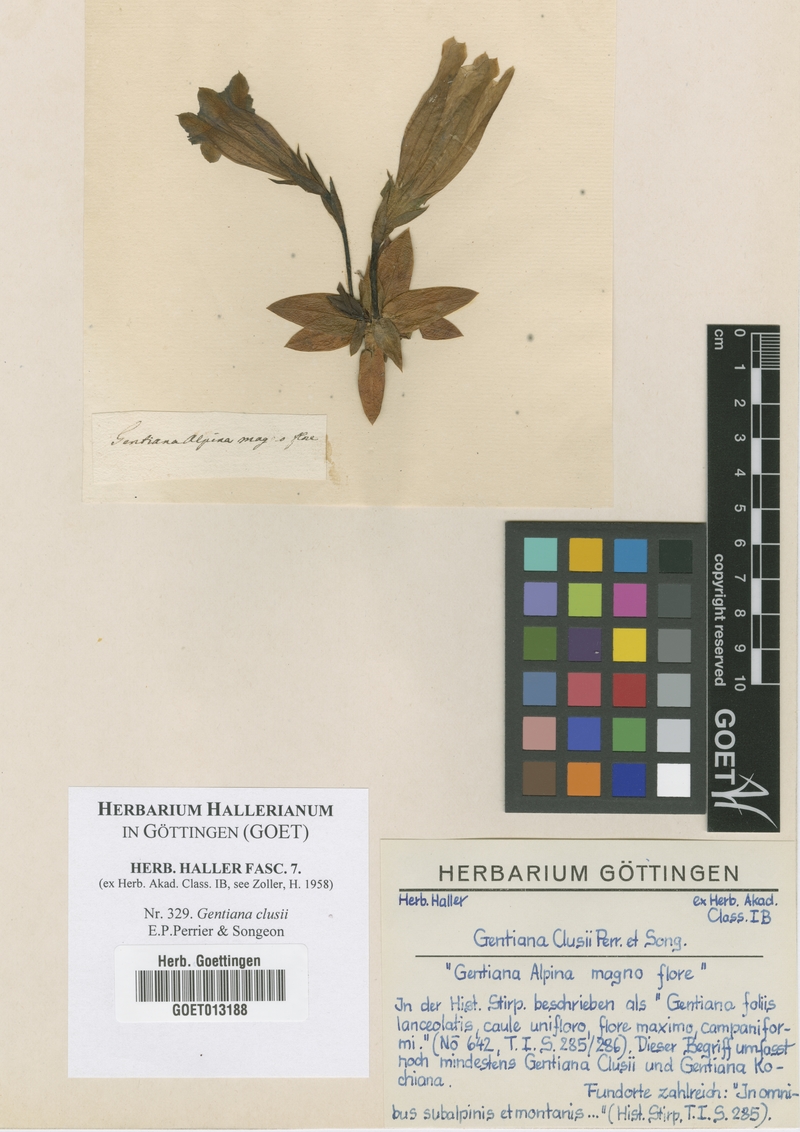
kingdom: Plantae
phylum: Tracheophyta
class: Magnoliopsida
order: Gentianales
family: Gentianaceae
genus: Gentiana
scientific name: Gentiana clusii
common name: Trumpet gentian
